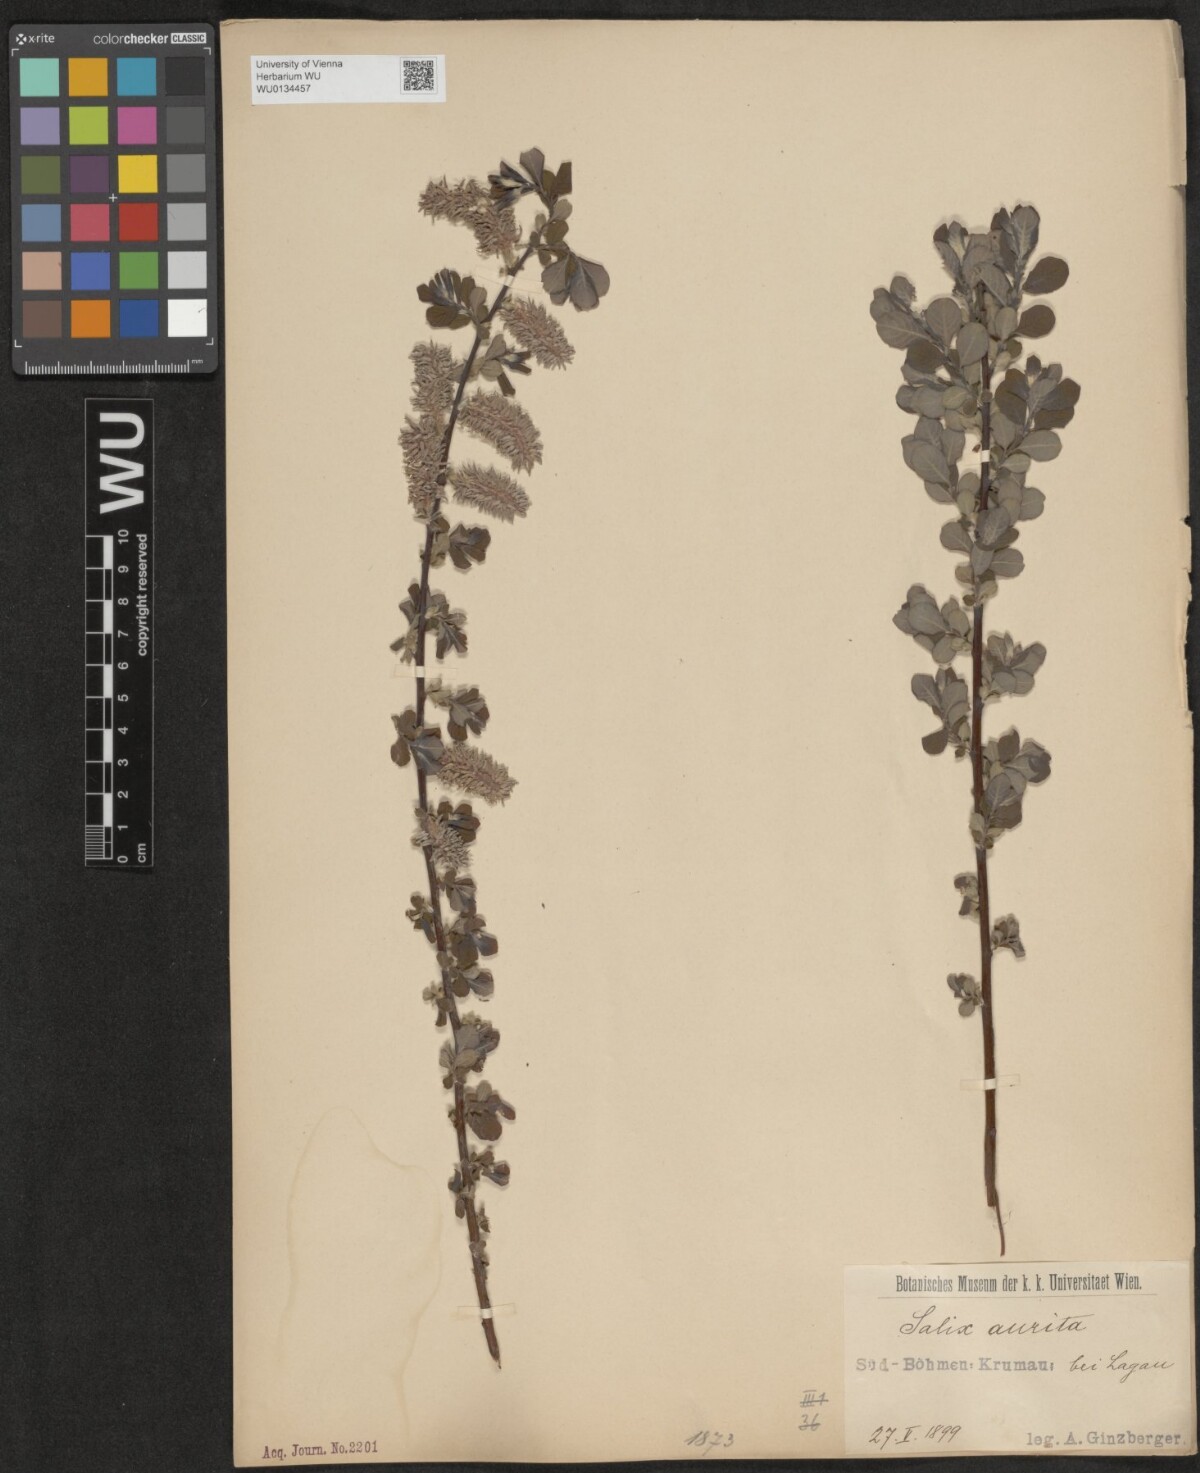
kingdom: Plantae
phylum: Tracheophyta
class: Magnoliopsida
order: Malpighiales
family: Salicaceae
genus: Salix
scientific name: Salix aurita
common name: Eared willow
